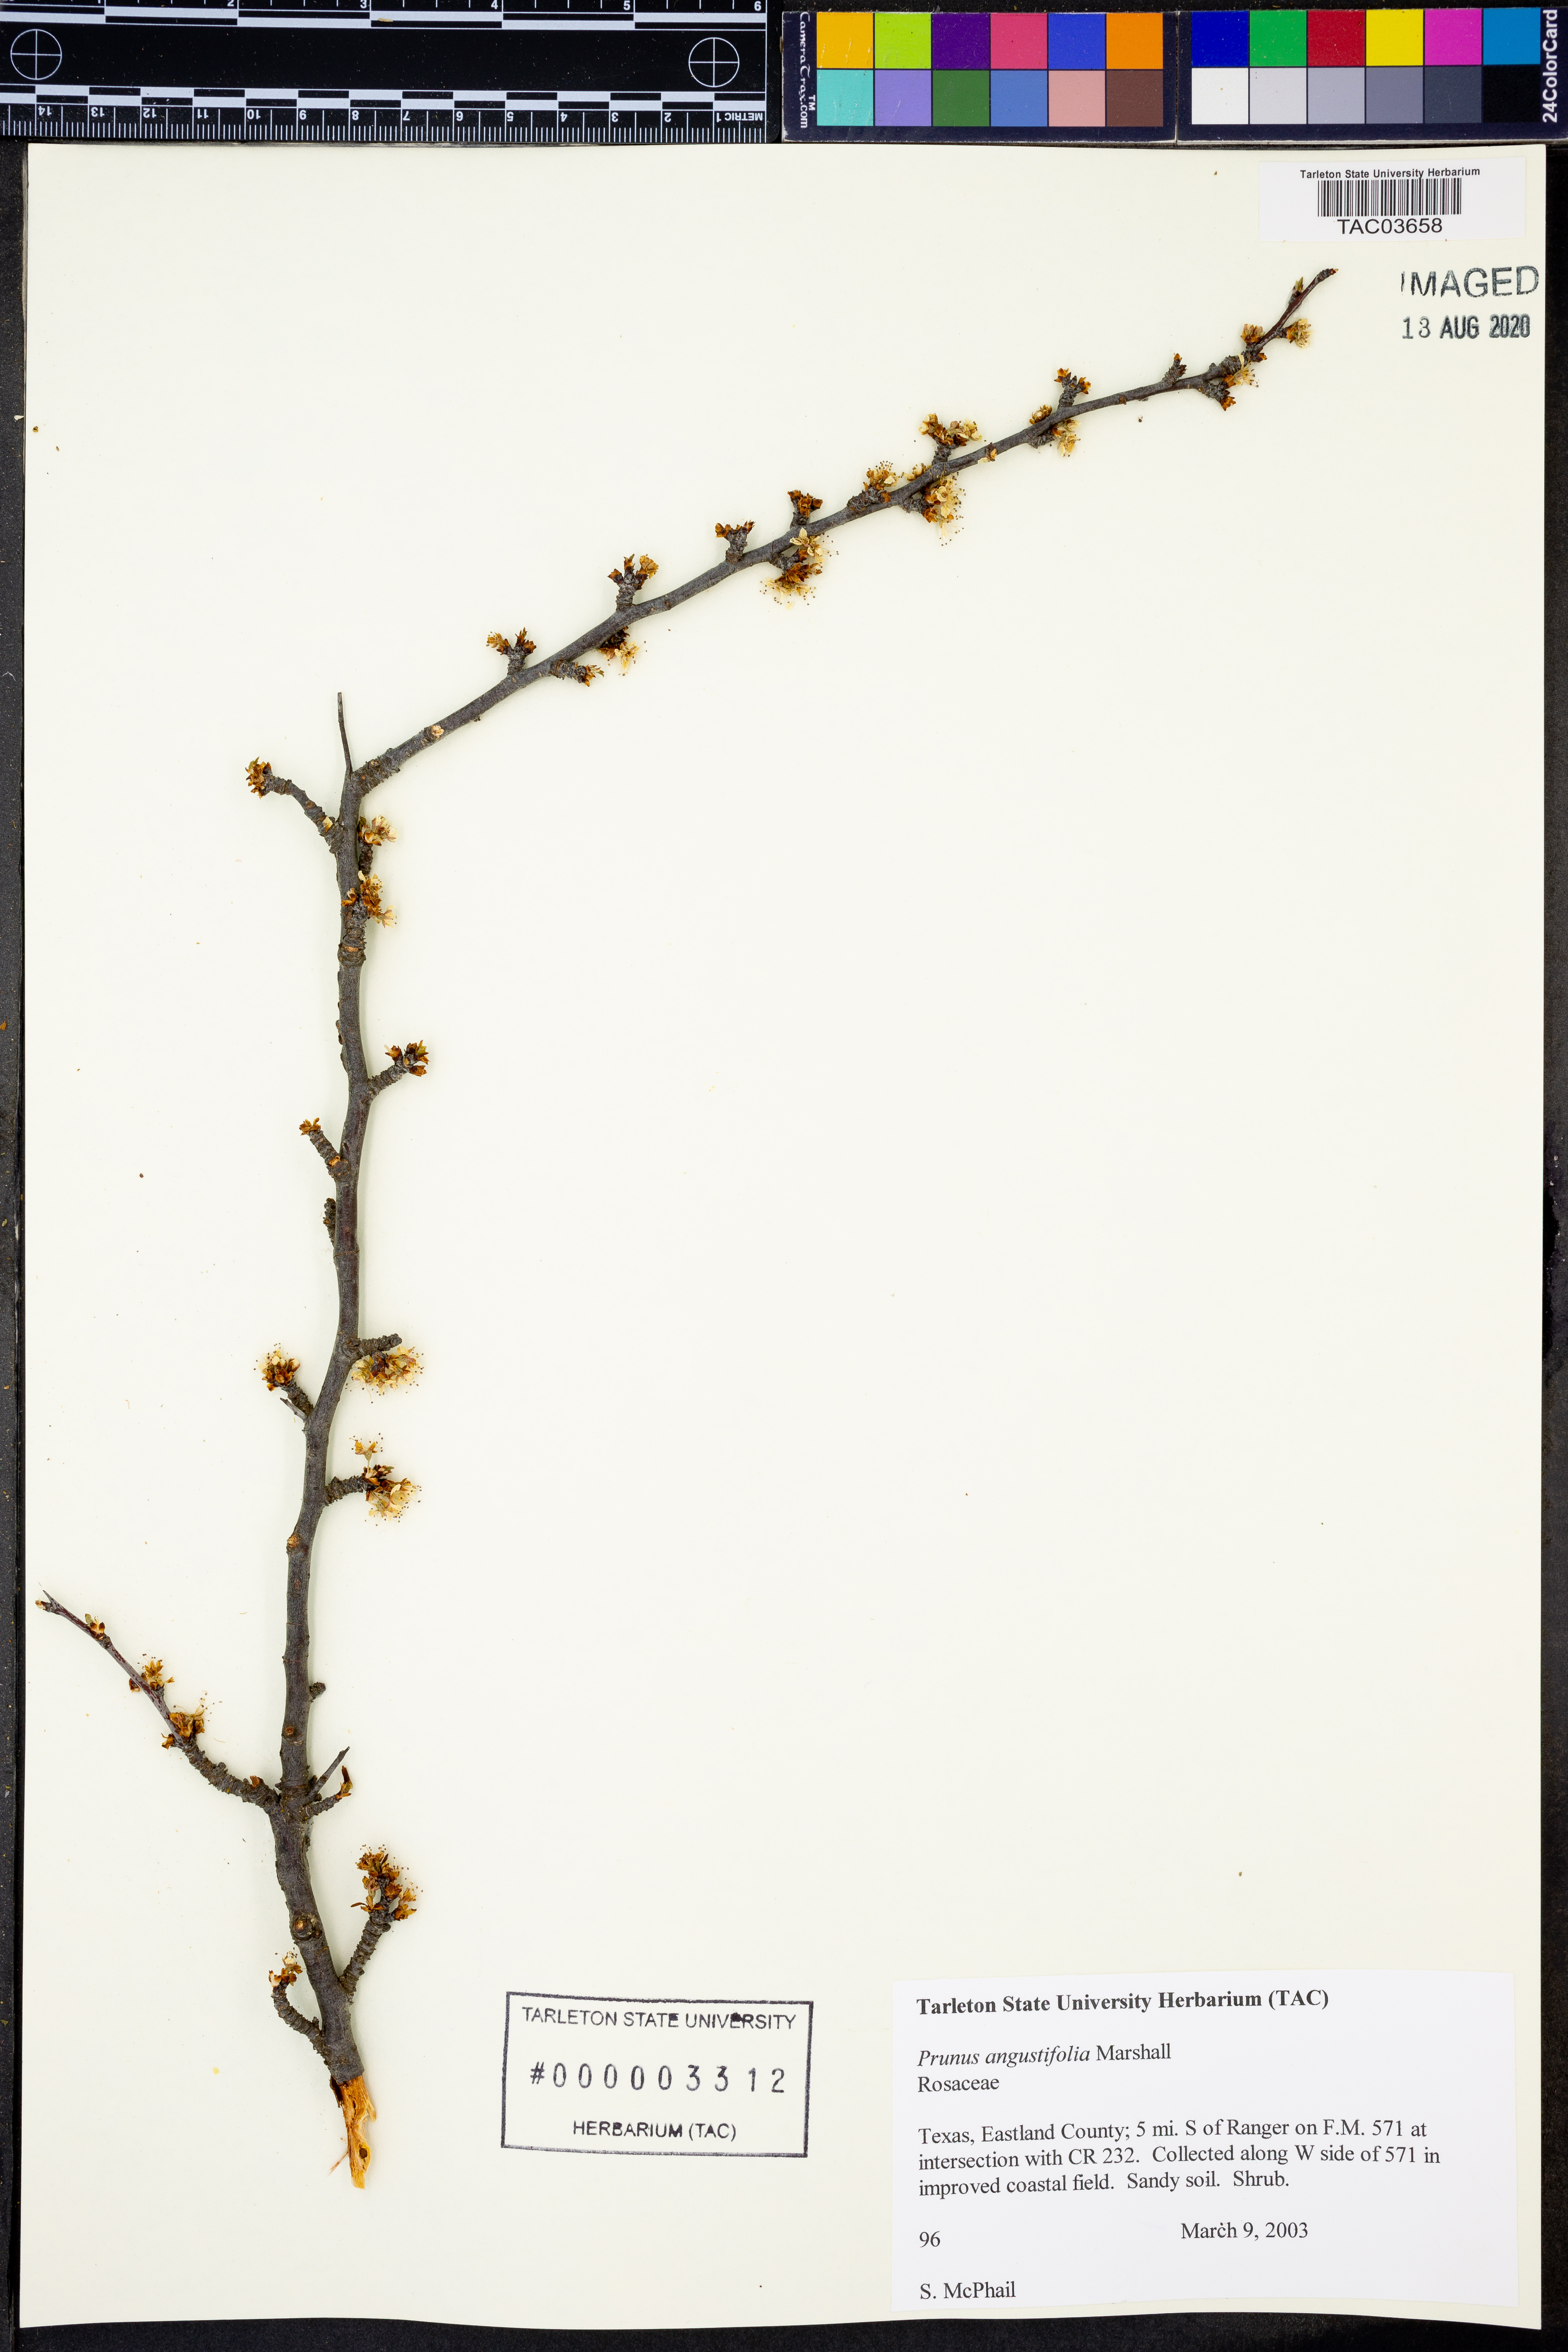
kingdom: Plantae
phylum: Tracheophyta
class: Magnoliopsida
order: Rosales
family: Rosaceae
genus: Prunus
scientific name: Prunus angustifolia
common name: Cherokee plum
